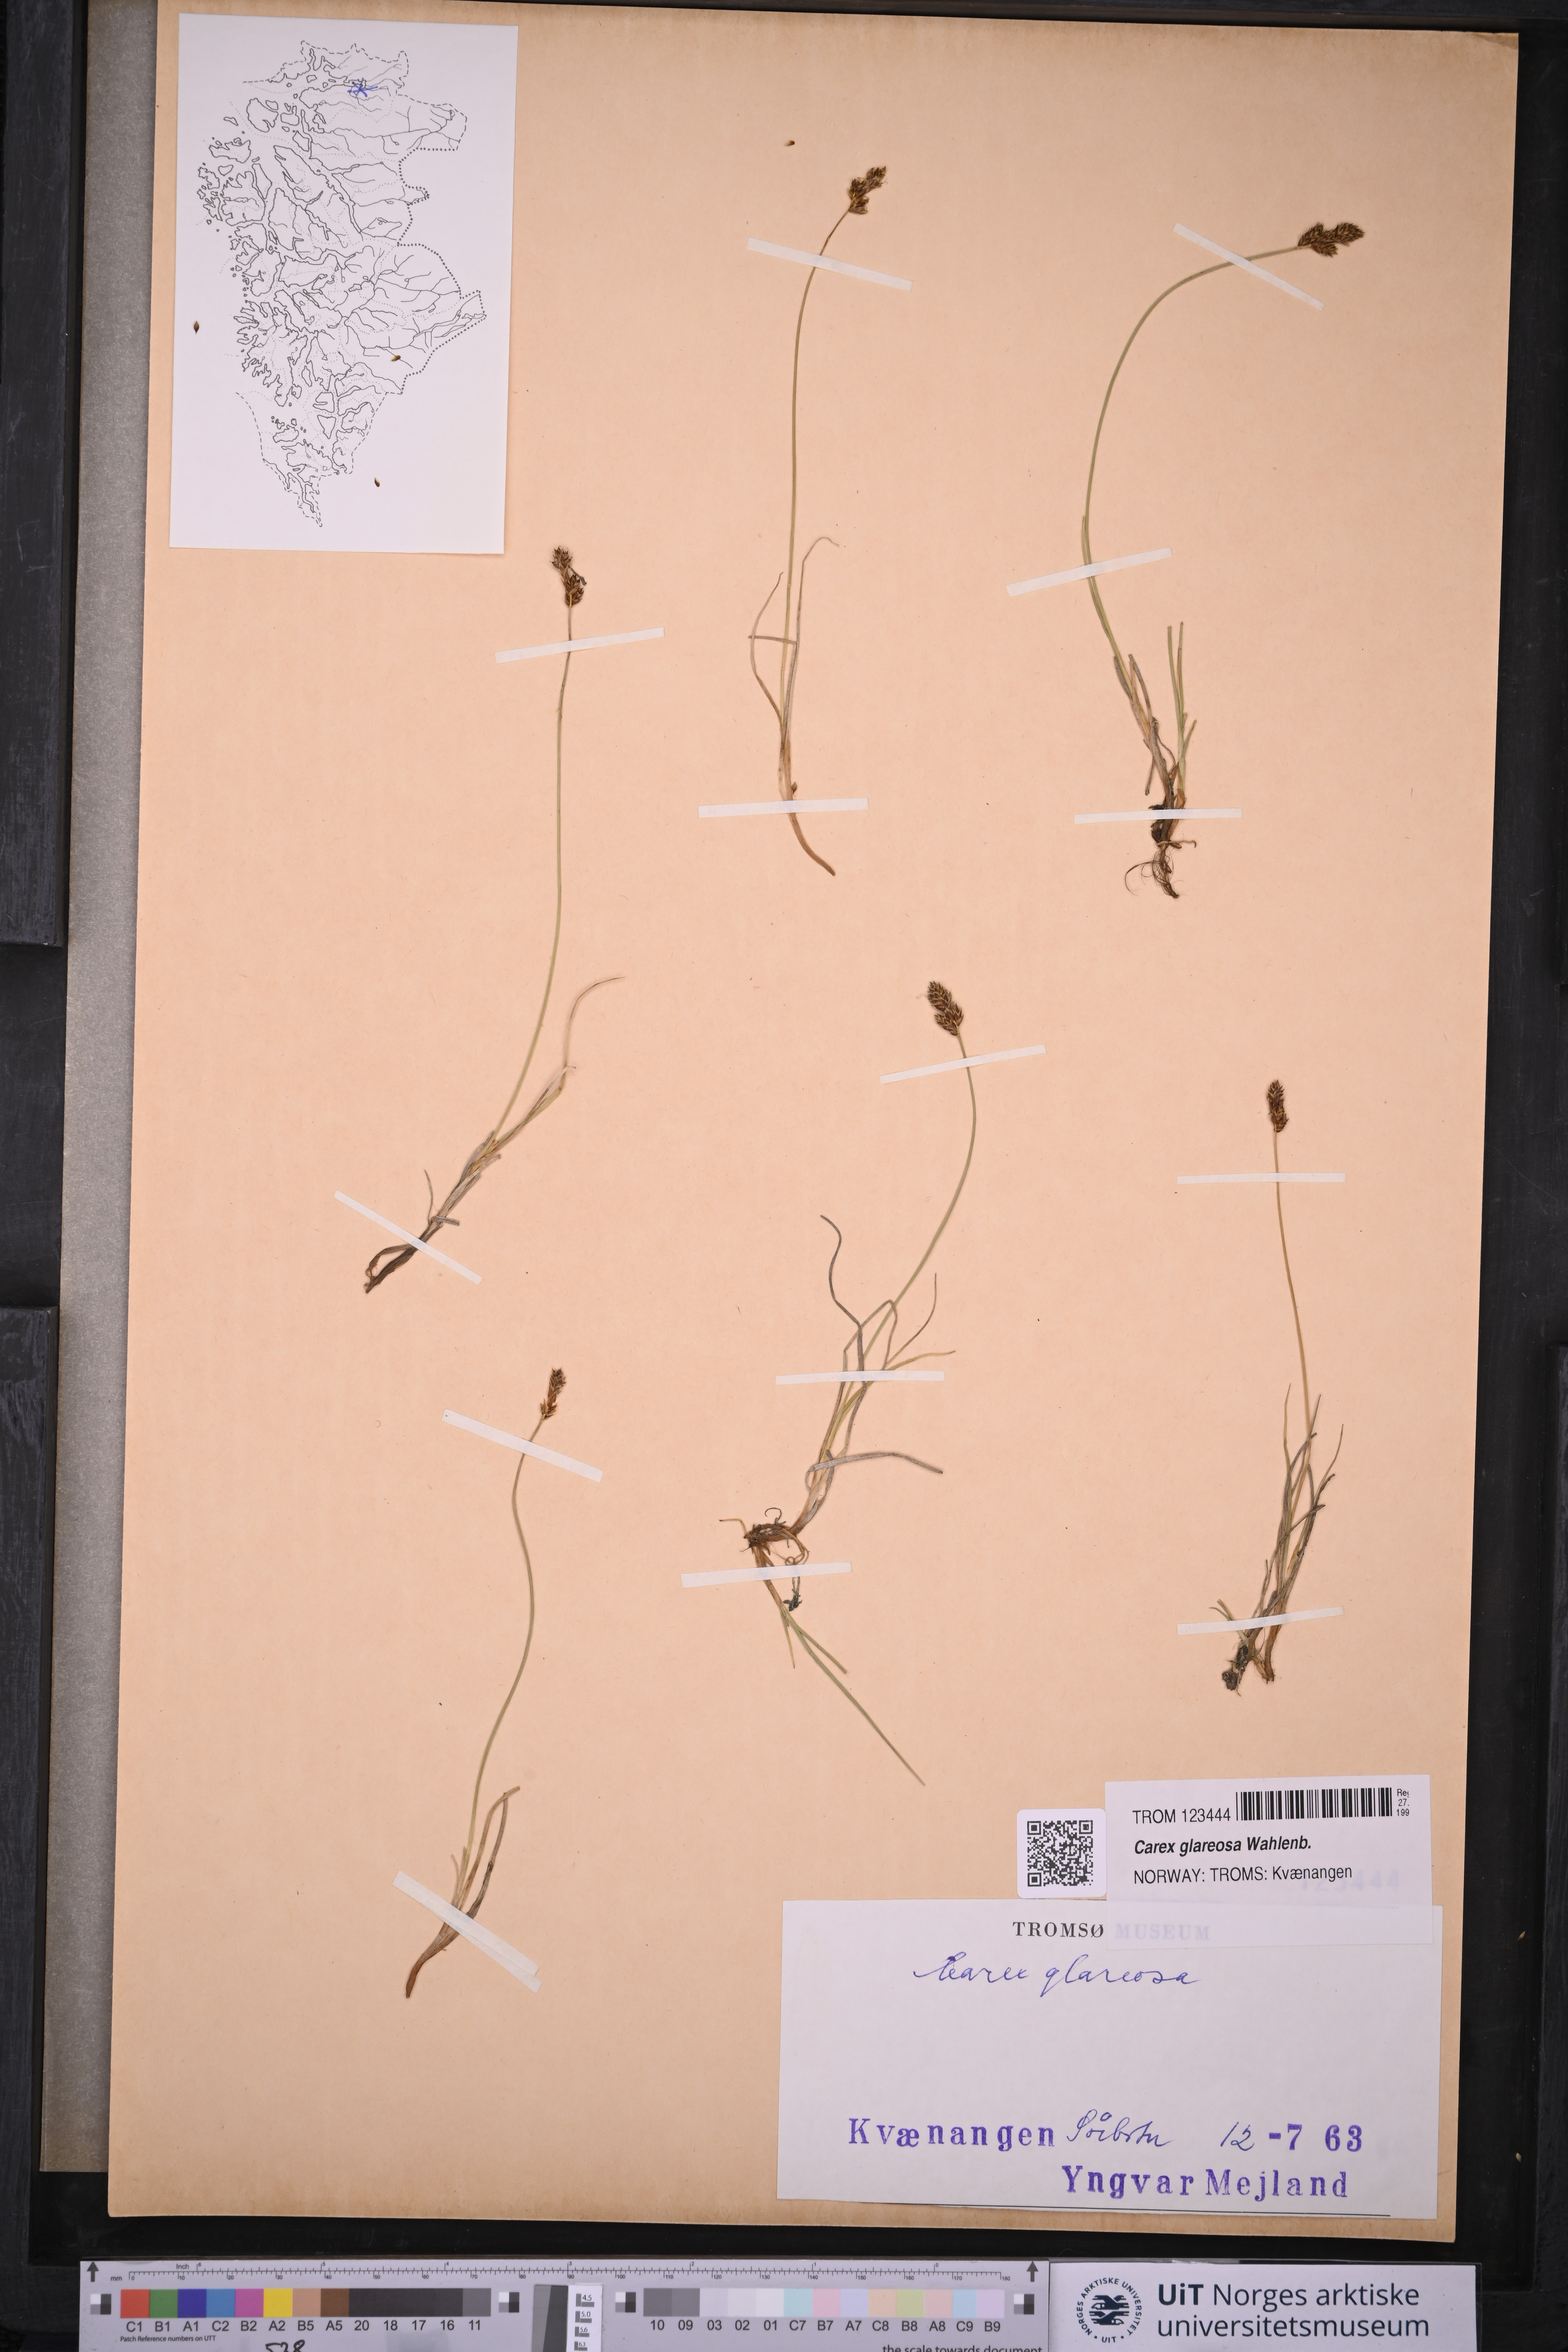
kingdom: Plantae
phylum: Tracheophyta
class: Liliopsida
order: Poales
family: Cyperaceae
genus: Carex
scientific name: Carex glareosa
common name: Clustered sedge
